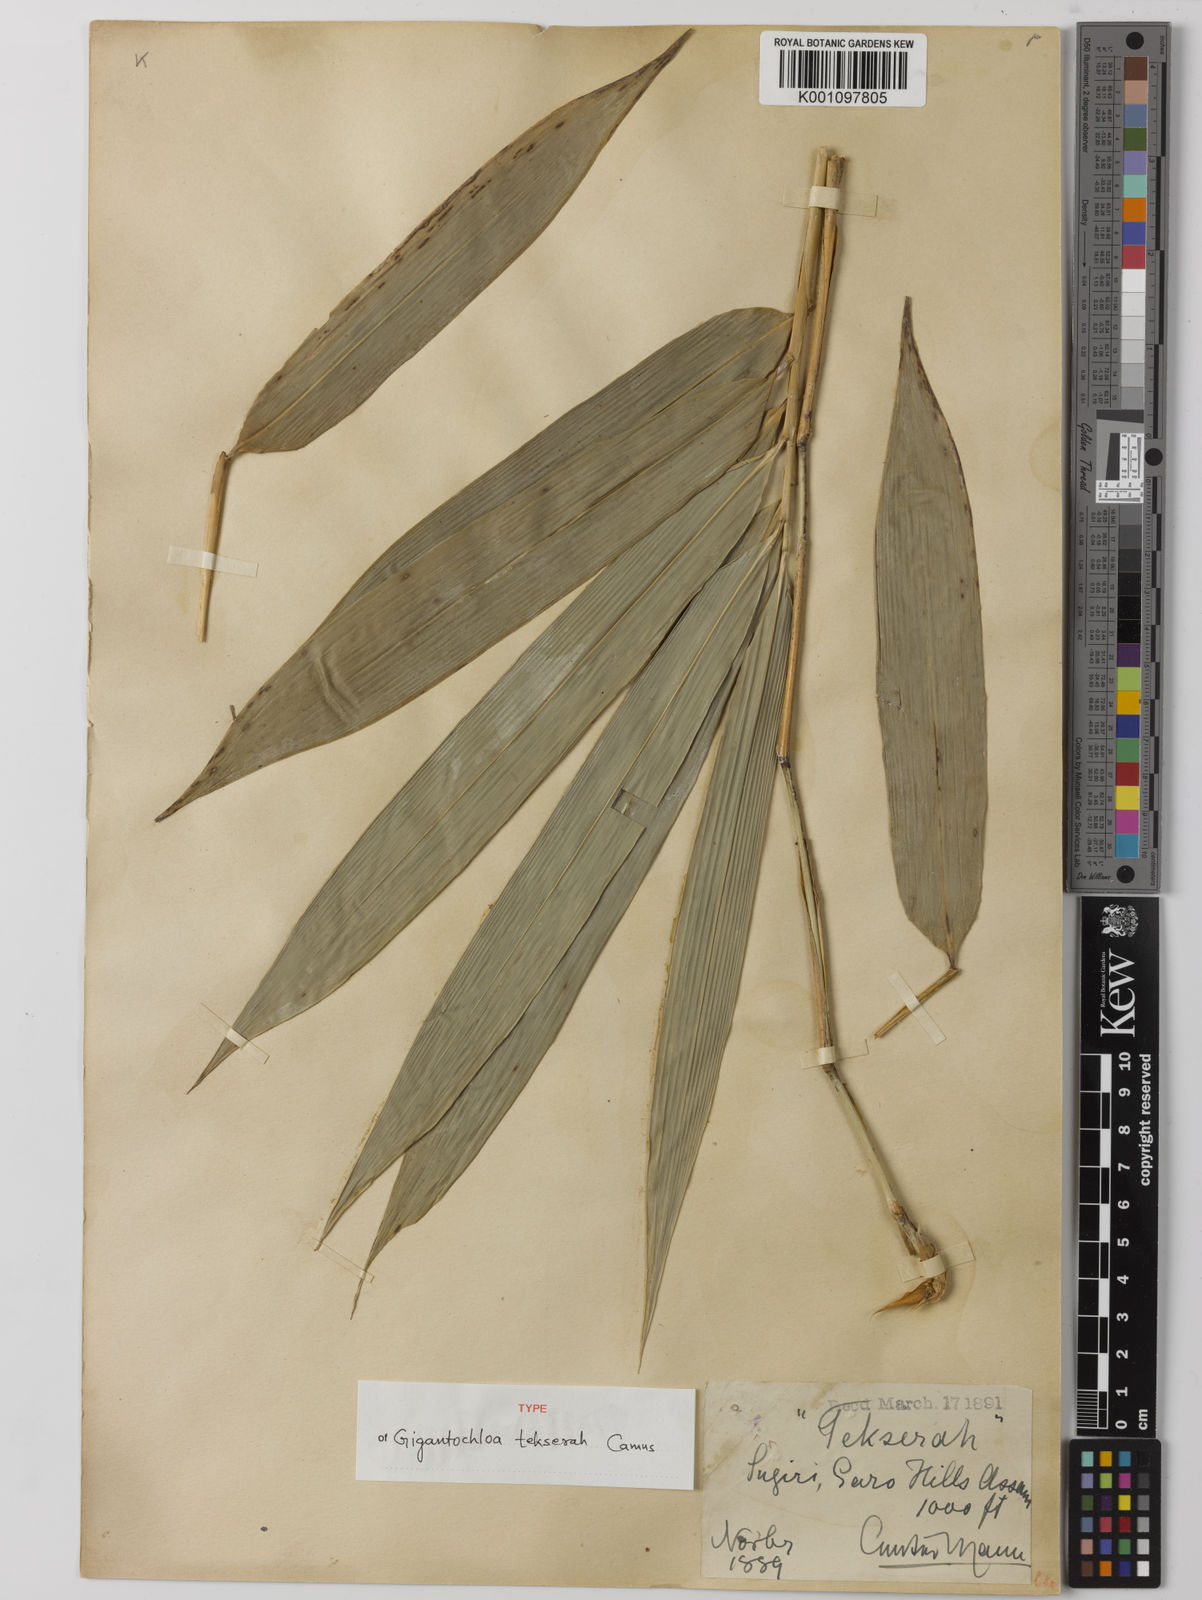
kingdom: Plantae
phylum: Tracheophyta
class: Liliopsida
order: Poales
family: Poaceae
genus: Gigantochloa
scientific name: Gigantochloa macrostachya
